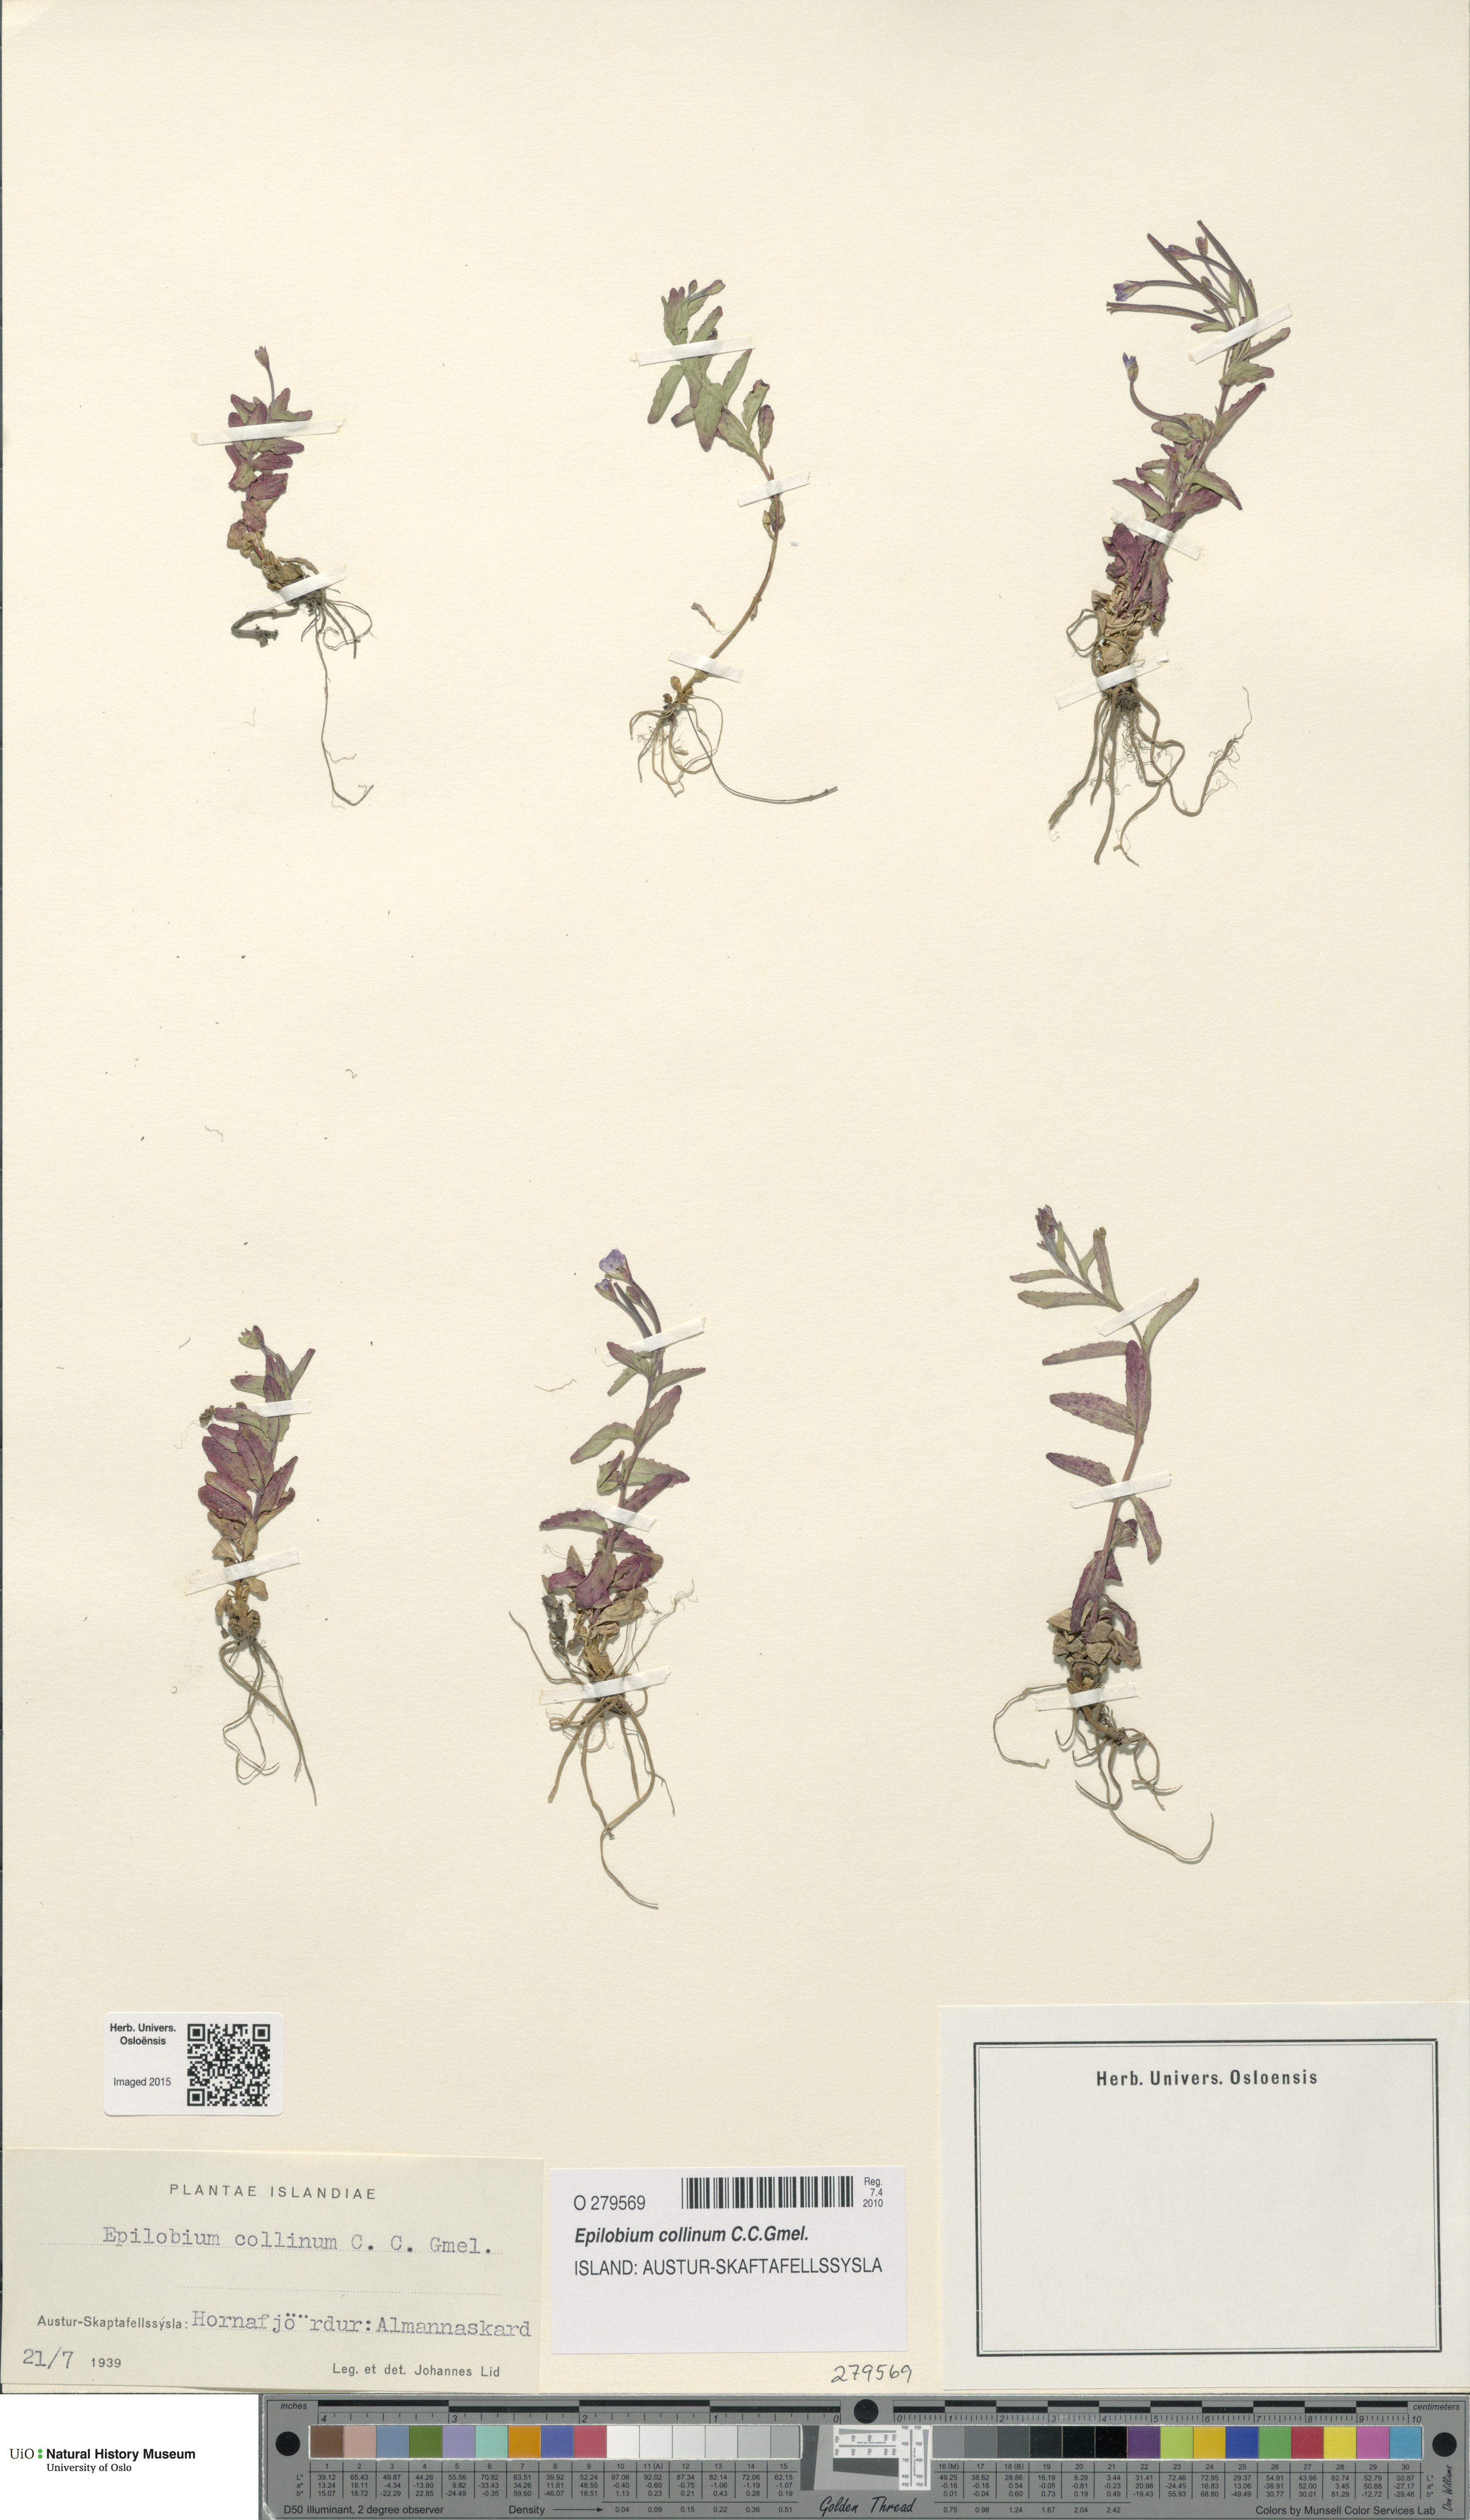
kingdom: Plantae
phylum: Tracheophyta
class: Magnoliopsida
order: Myrtales
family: Onagraceae
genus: Epilobium
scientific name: Epilobium collinum
